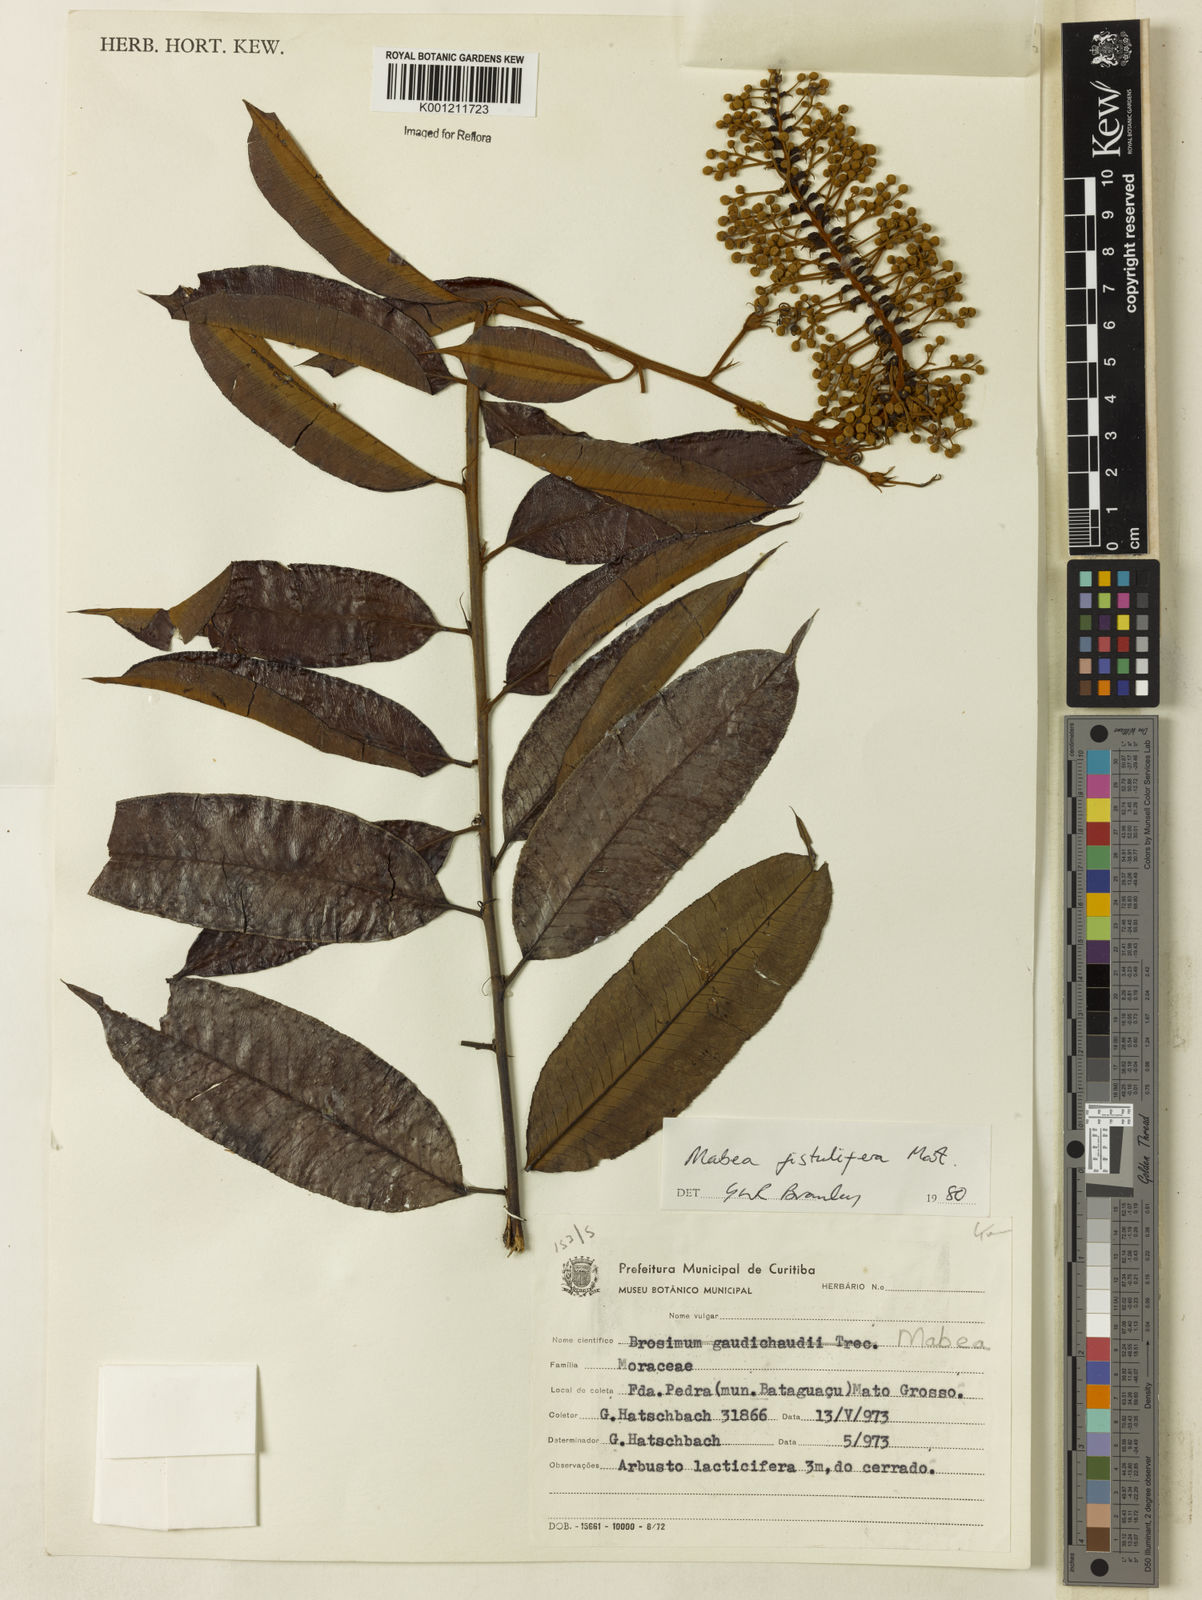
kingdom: Plantae
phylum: Tracheophyta
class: Magnoliopsida
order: Malpighiales
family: Euphorbiaceae
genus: Mabea
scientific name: Mabea fistulifera
